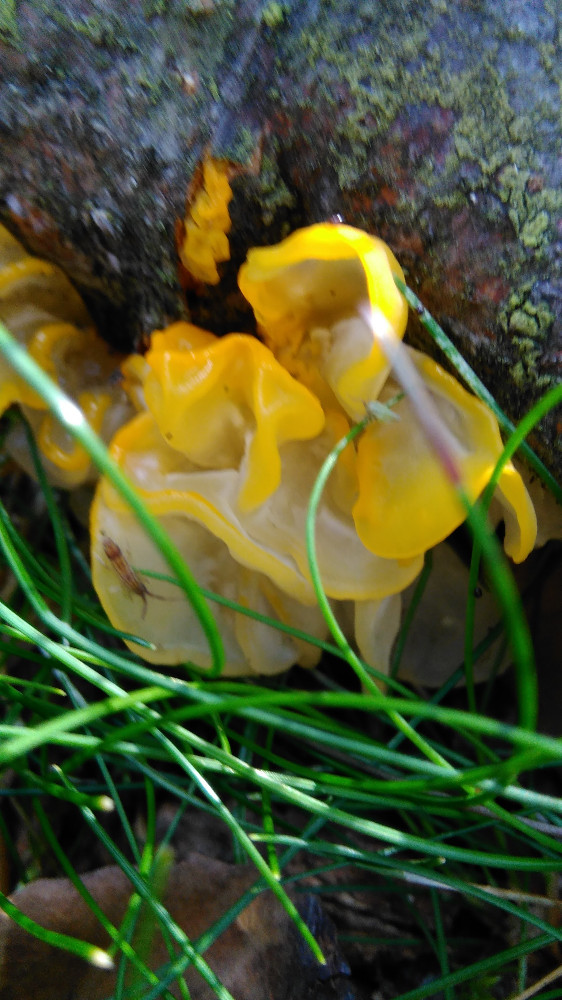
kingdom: Fungi
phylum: Basidiomycota
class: Tremellomycetes
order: Tremellales
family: Tremellaceae
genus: Tremella
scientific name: Tremella mesenterica
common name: gul bævresvamp
